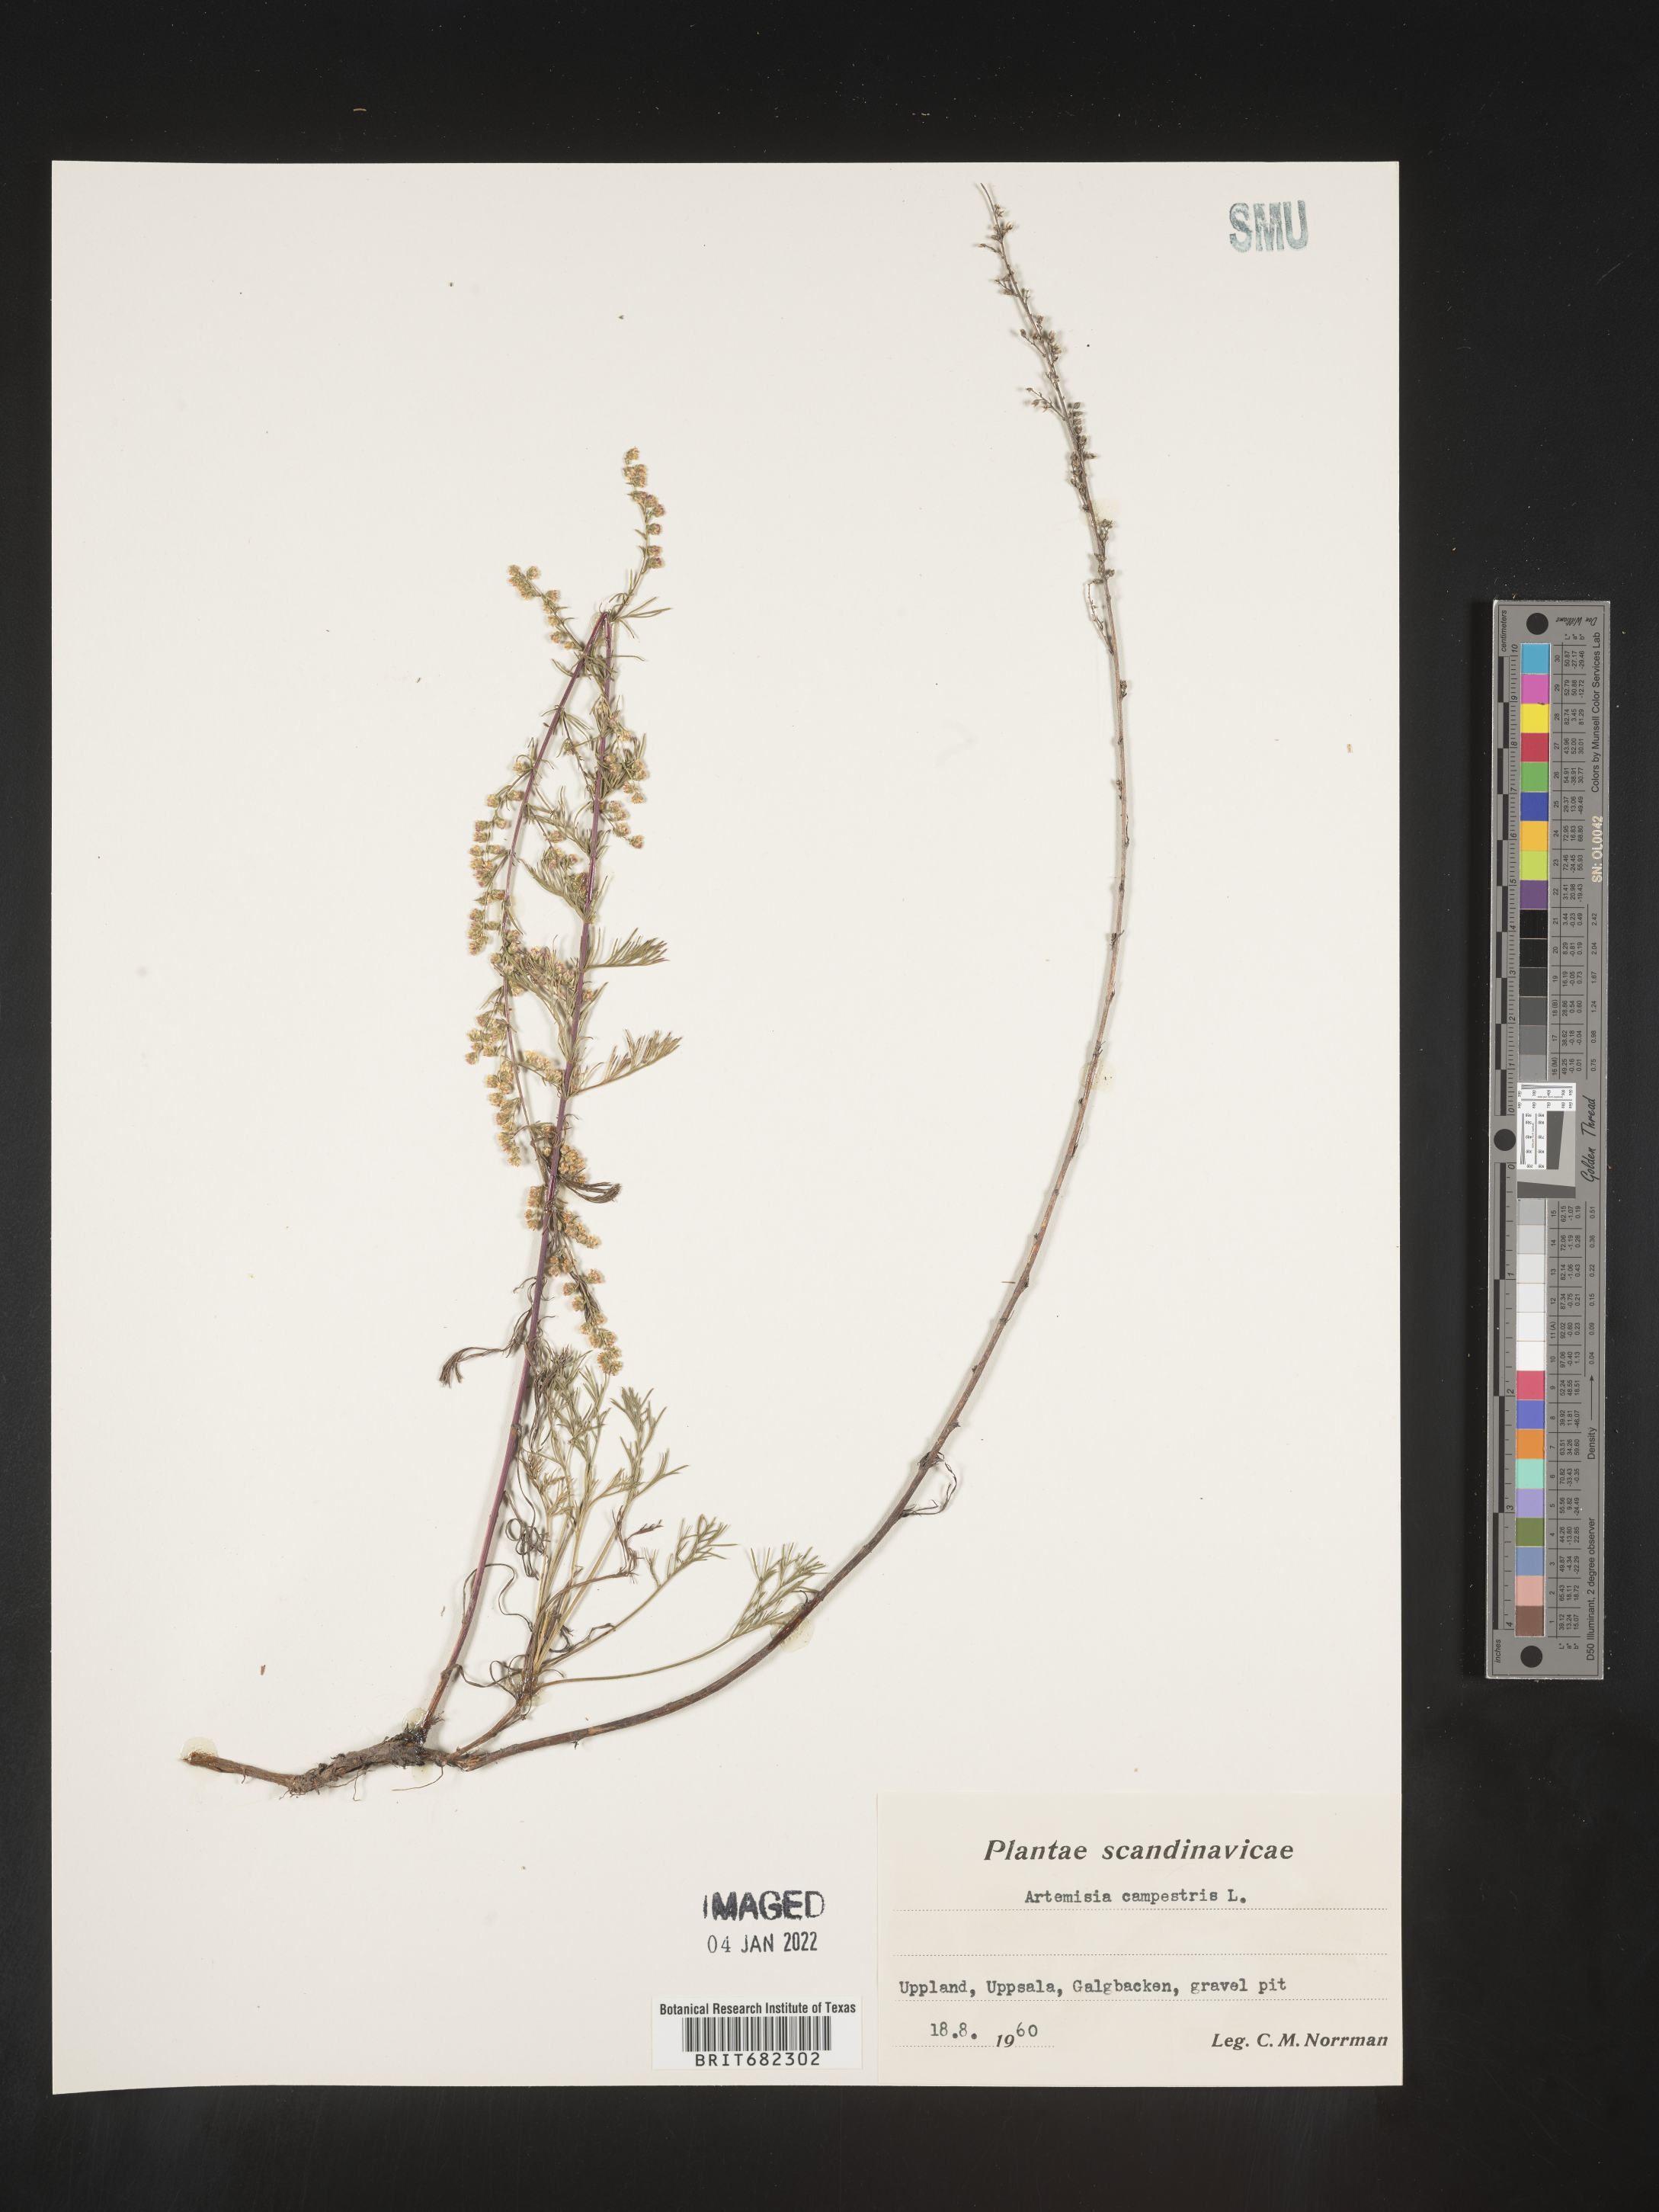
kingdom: Plantae
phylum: Tracheophyta
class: Magnoliopsida
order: Asterales
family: Asteraceae
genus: Artemisia
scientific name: Artemisia campestris
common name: Field wormwood
